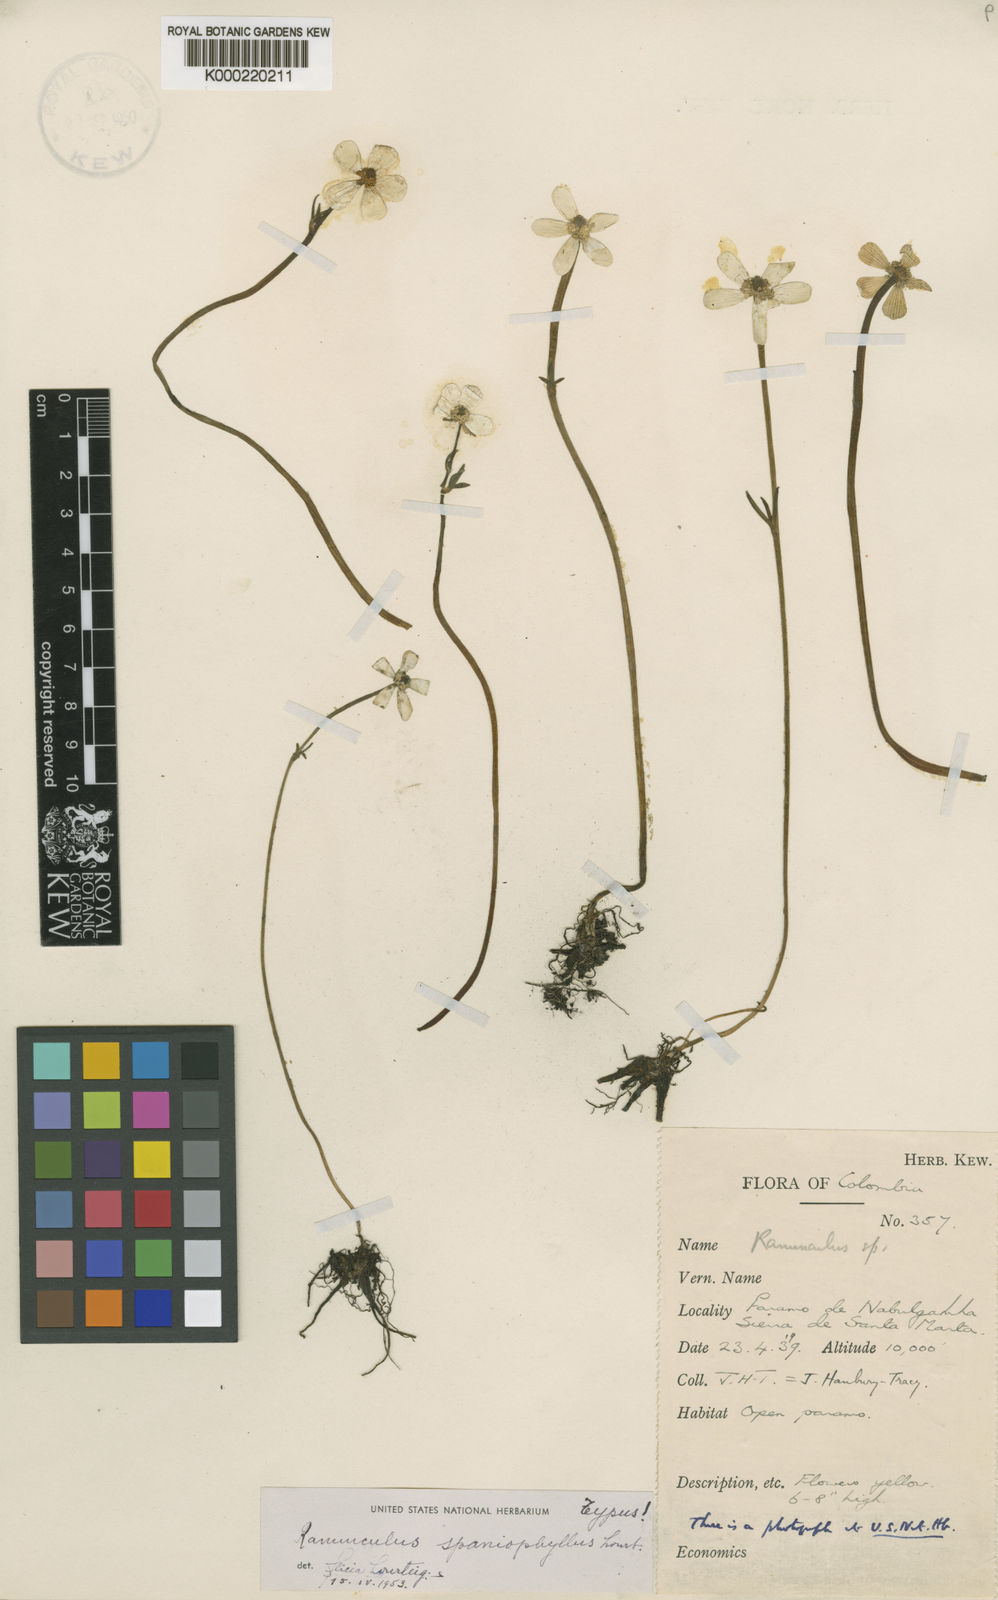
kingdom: Plantae
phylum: Tracheophyta
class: Magnoliopsida
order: Ranunculales
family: Ranunculaceae
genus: Ranunculus
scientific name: Ranunculus spaniophyllus
